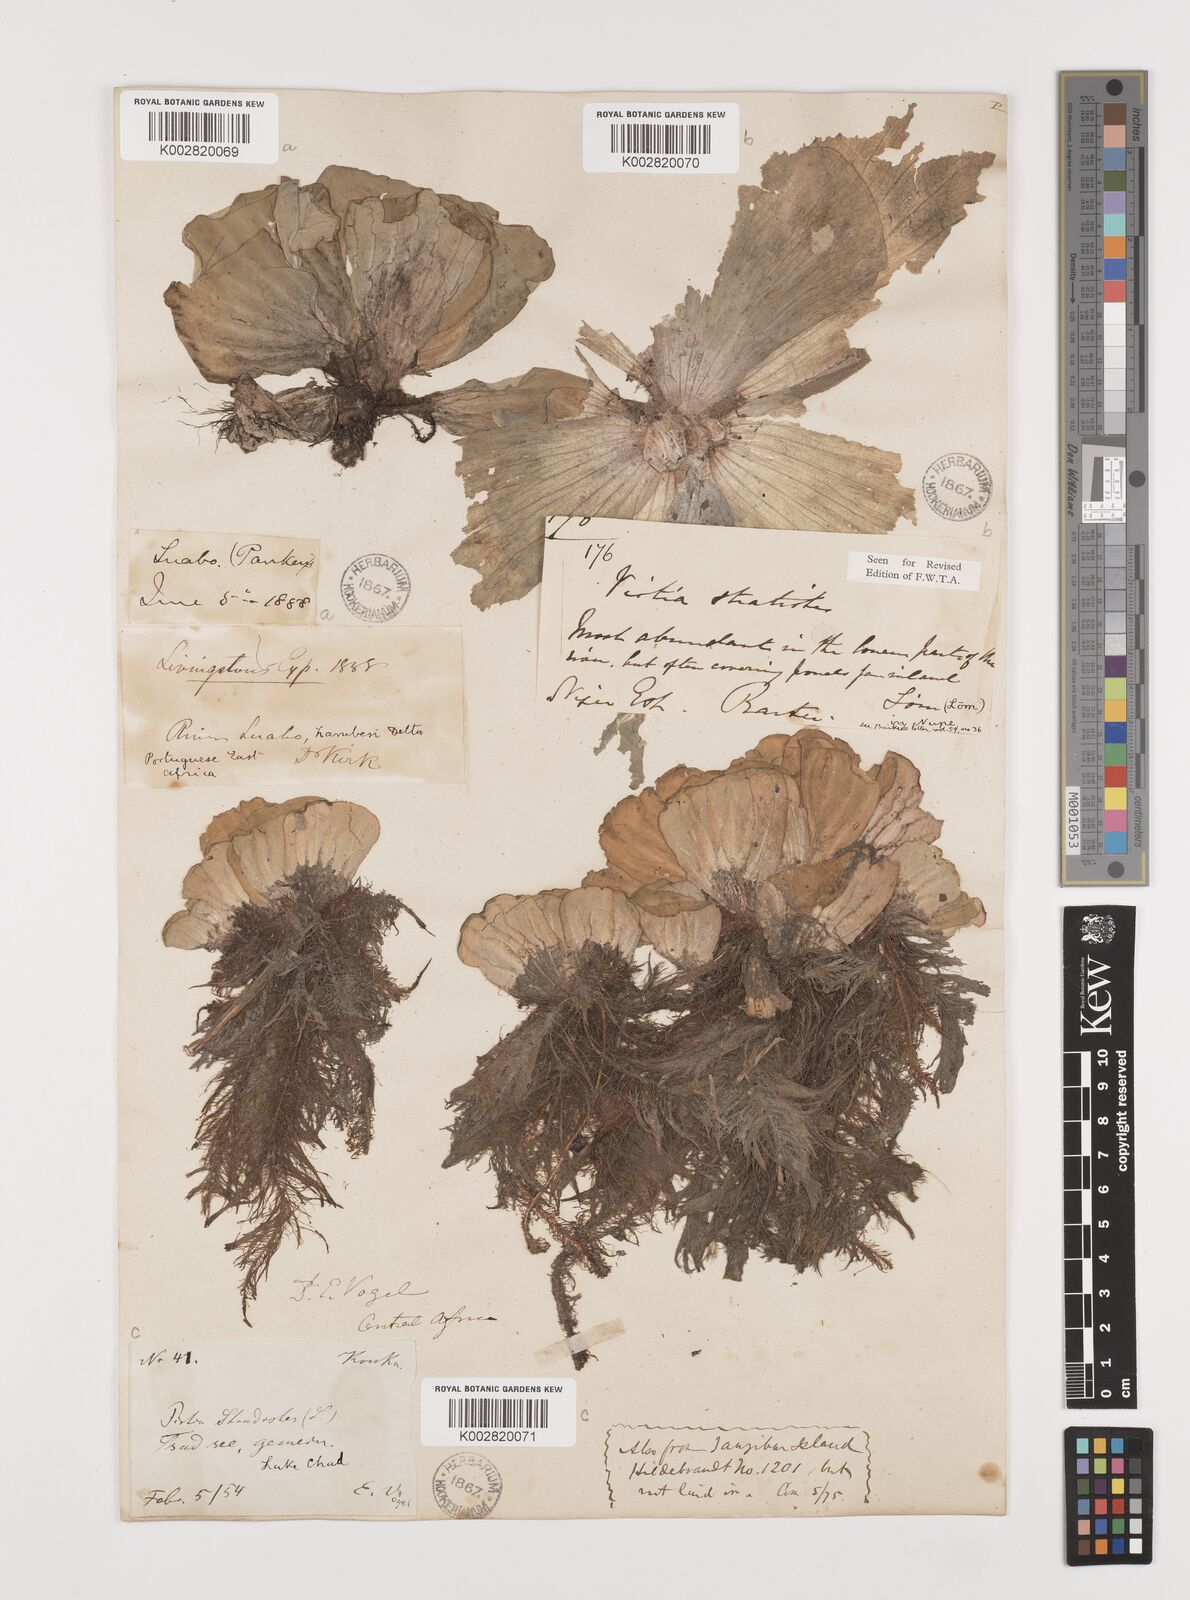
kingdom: Plantae
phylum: Tracheophyta
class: Liliopsida
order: Alismatales
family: Araceae
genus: Pistia
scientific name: Pistia stratiotes
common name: Water lettuce
